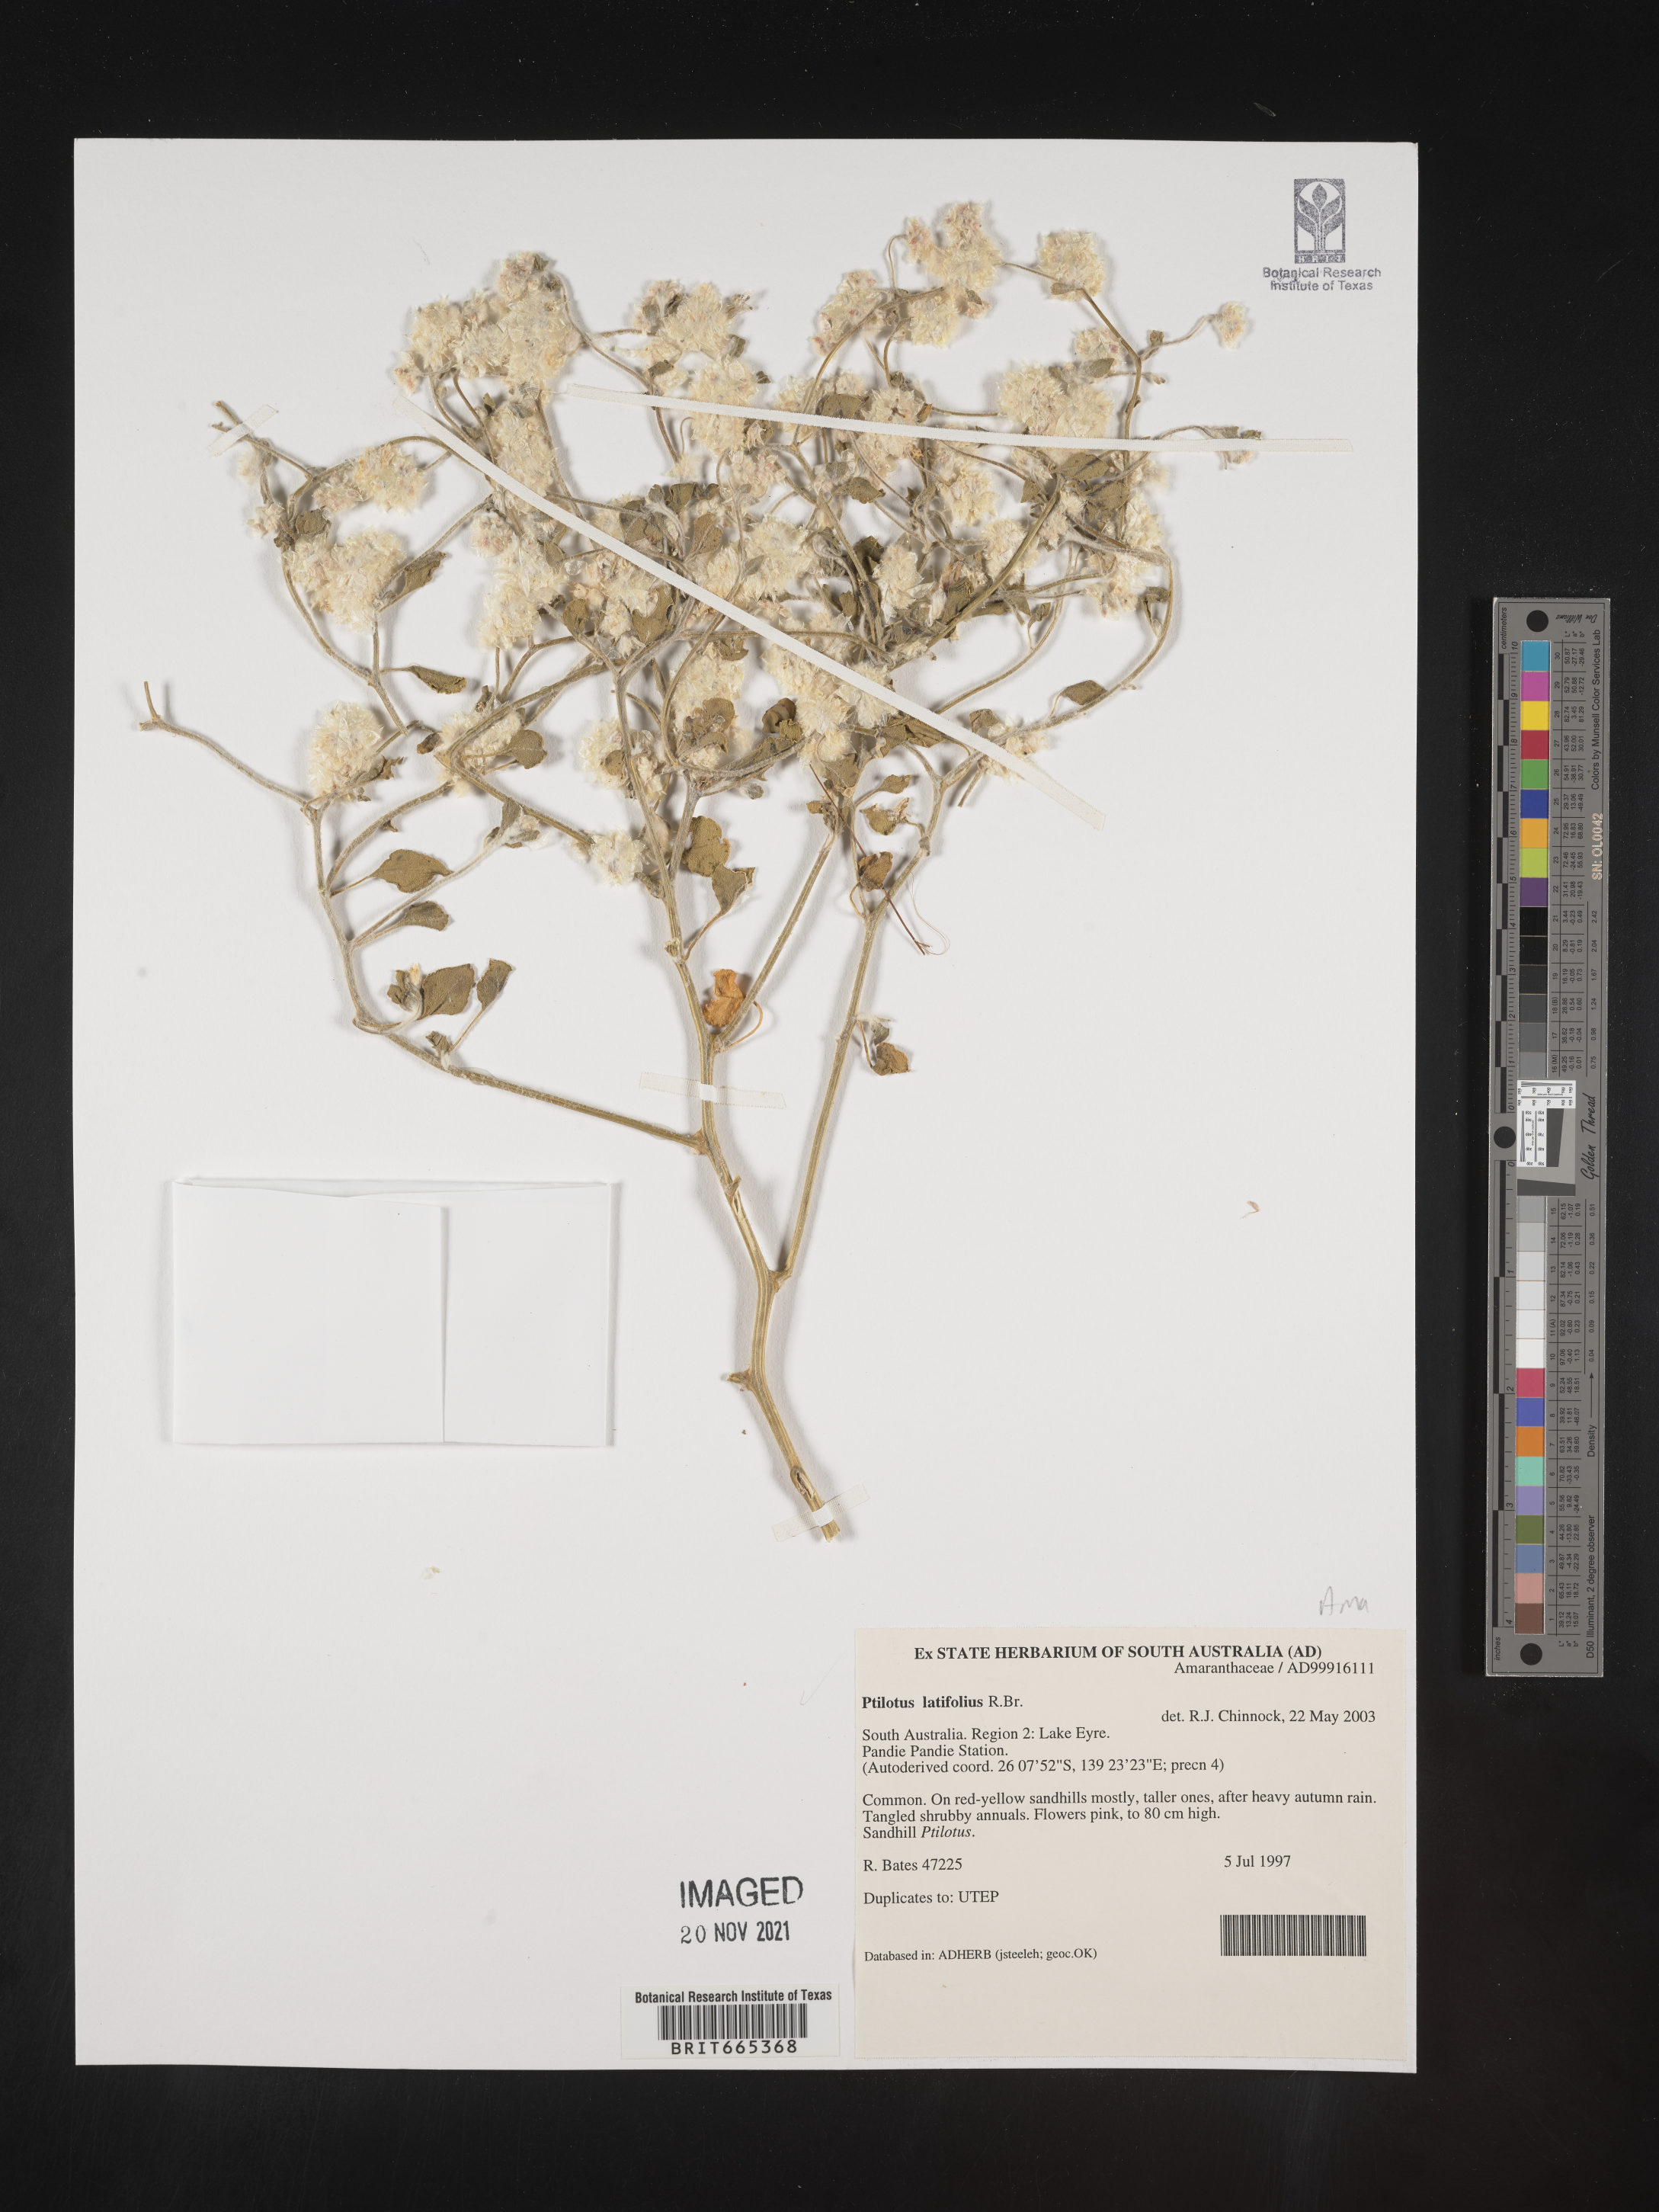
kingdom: Plantae
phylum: Tracheophyta
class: Magnoliopsida
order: Caryophyllales
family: Amaranthaceae
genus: Ptilotus
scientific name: Ptilotus
